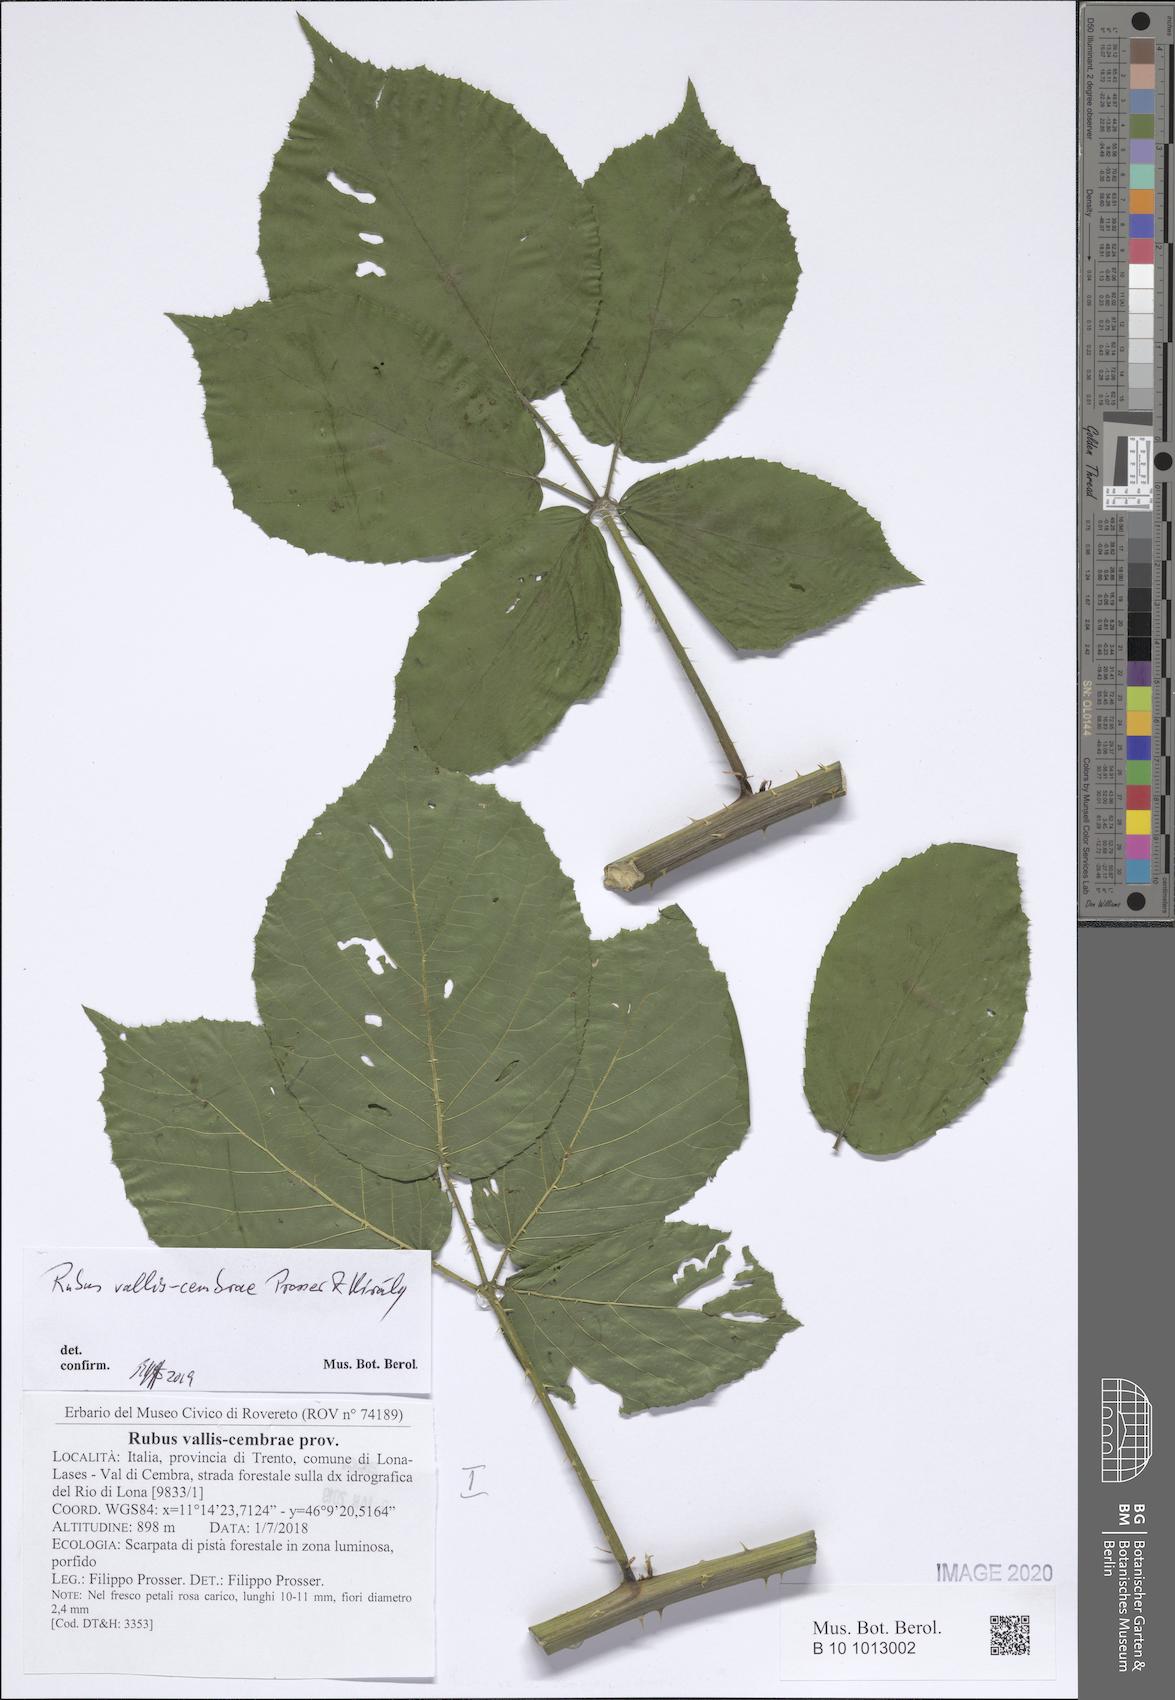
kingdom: Plantae
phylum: Tracheophyta
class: Magnoliopsida
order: Rosales
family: Rosaceae
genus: Rubus
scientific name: Rubus vallis-cembrae
